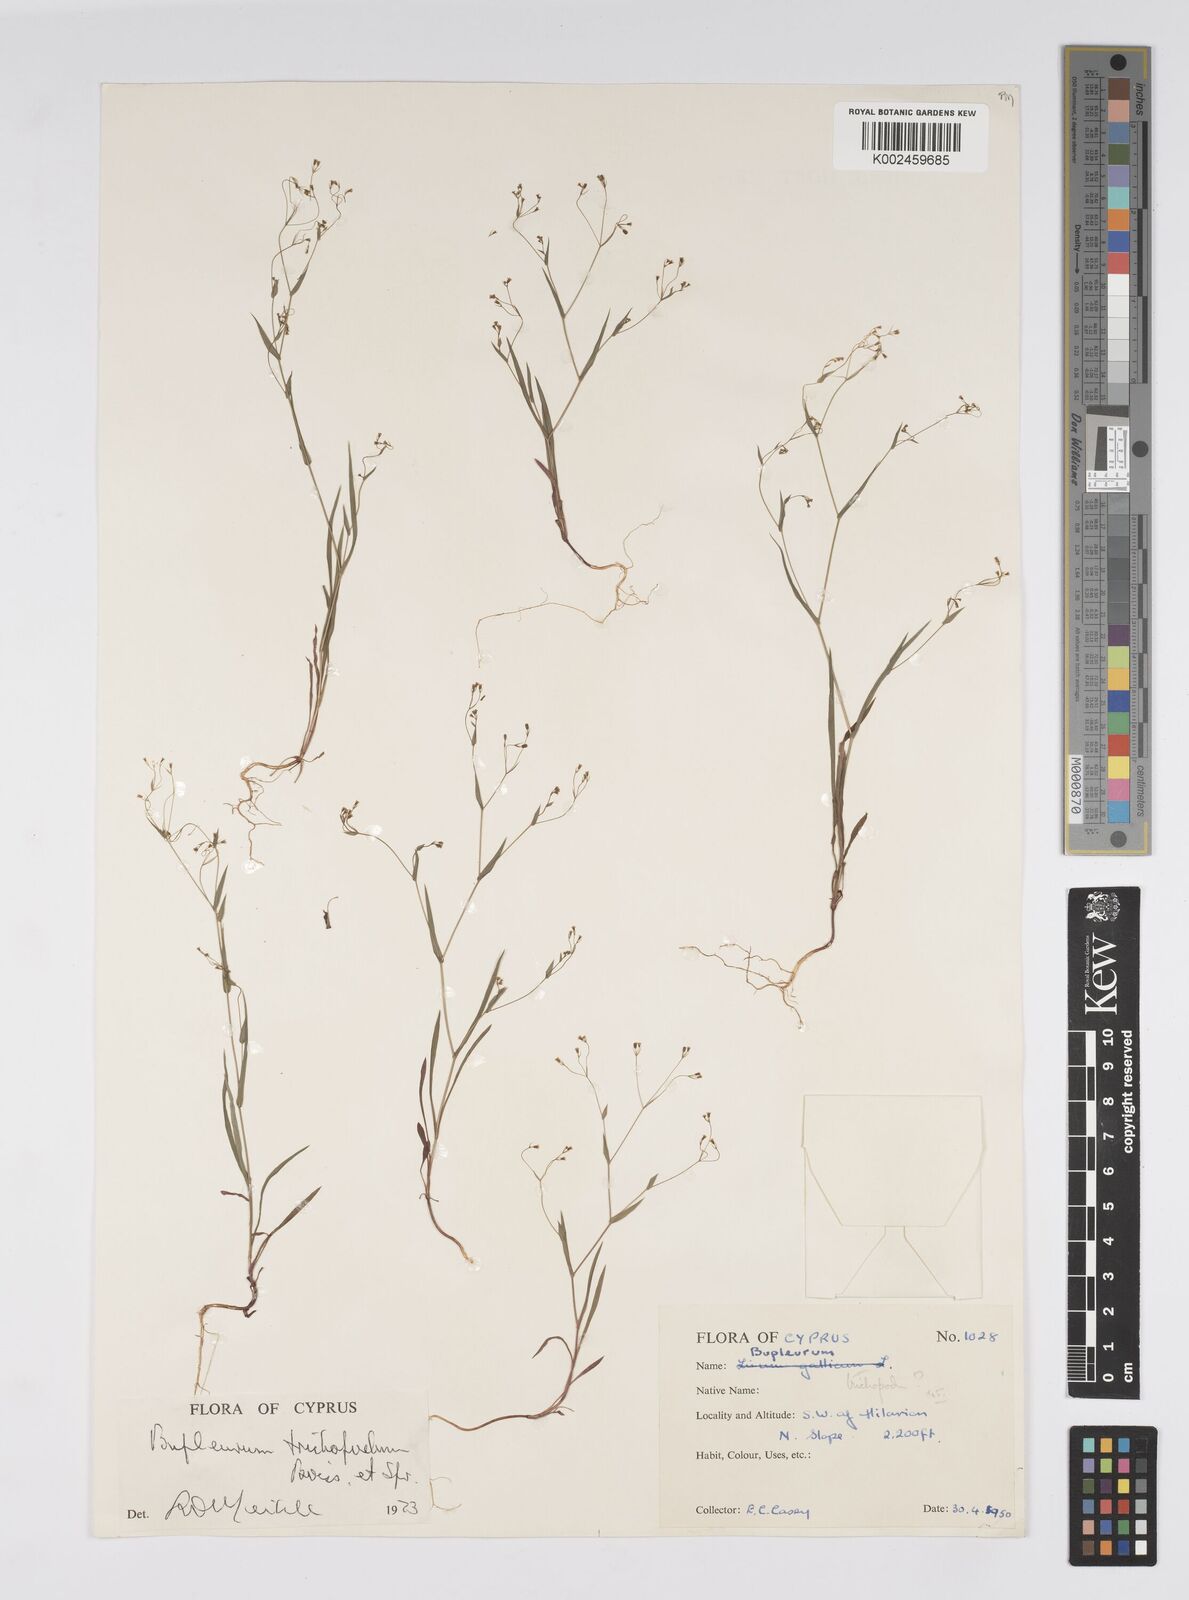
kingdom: Plantae
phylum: Tracheophyta
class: Magnoliopsida
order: Apiales
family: Apiaceae
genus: Bupleurum
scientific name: Bupleurum trichopodum
